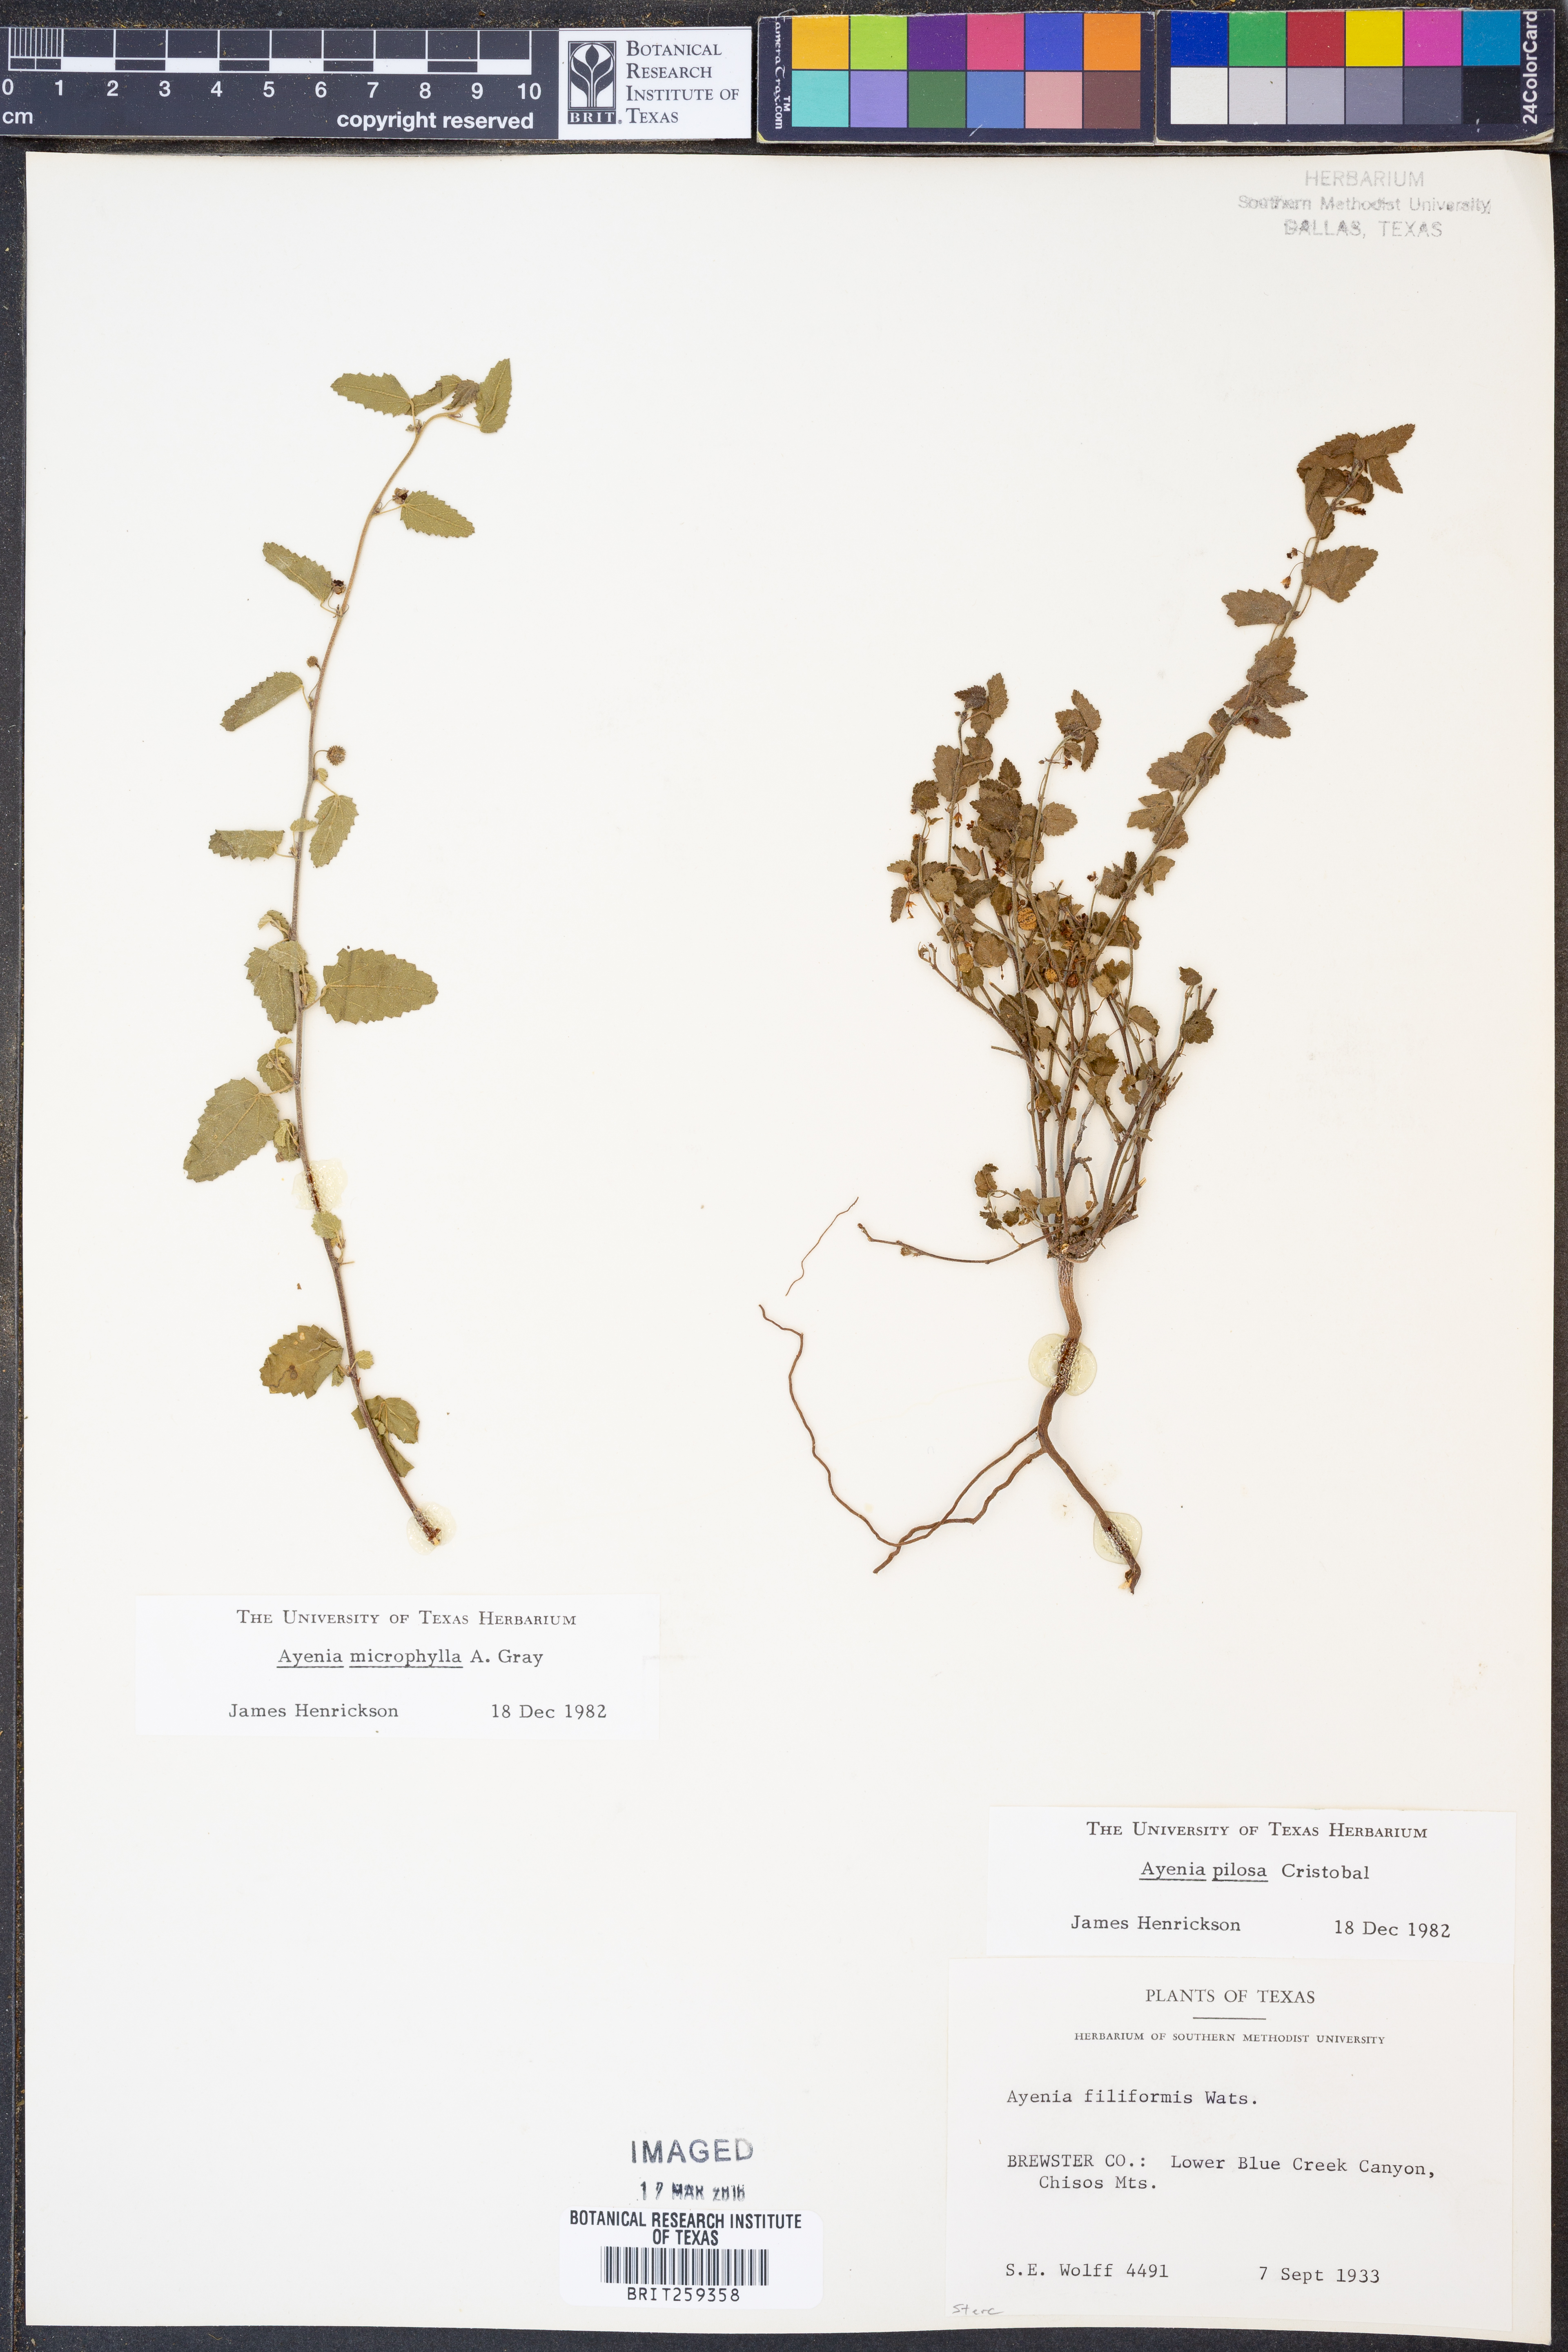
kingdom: Plantae
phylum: Tracheophyta
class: Magnoliopsida
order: Malvales
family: Malvaceae
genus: Ayenia
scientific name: Ayenia microphylla
